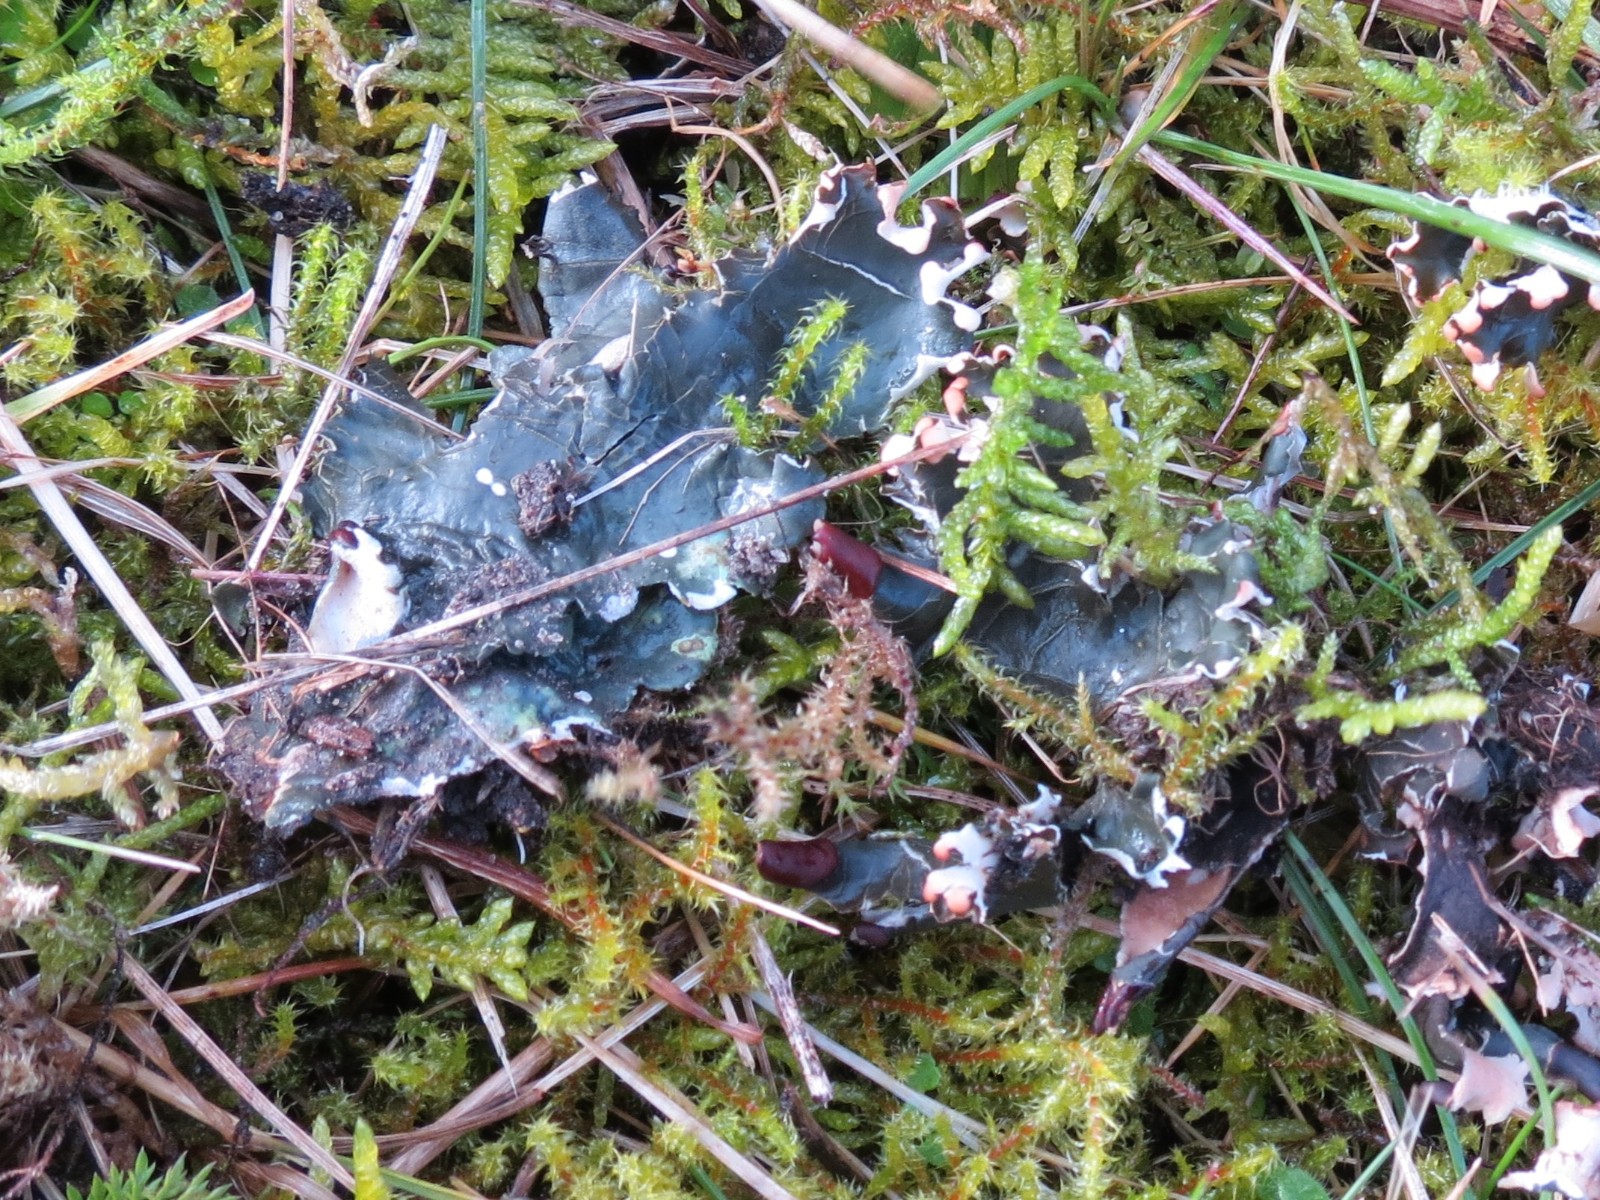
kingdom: Fungi
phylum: Ascomycota
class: Lecanoromycetes
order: Peltigerales
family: Peltigeraceae
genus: Peltigera
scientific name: Peltigera neckeri
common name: glinsende skjoldlav
